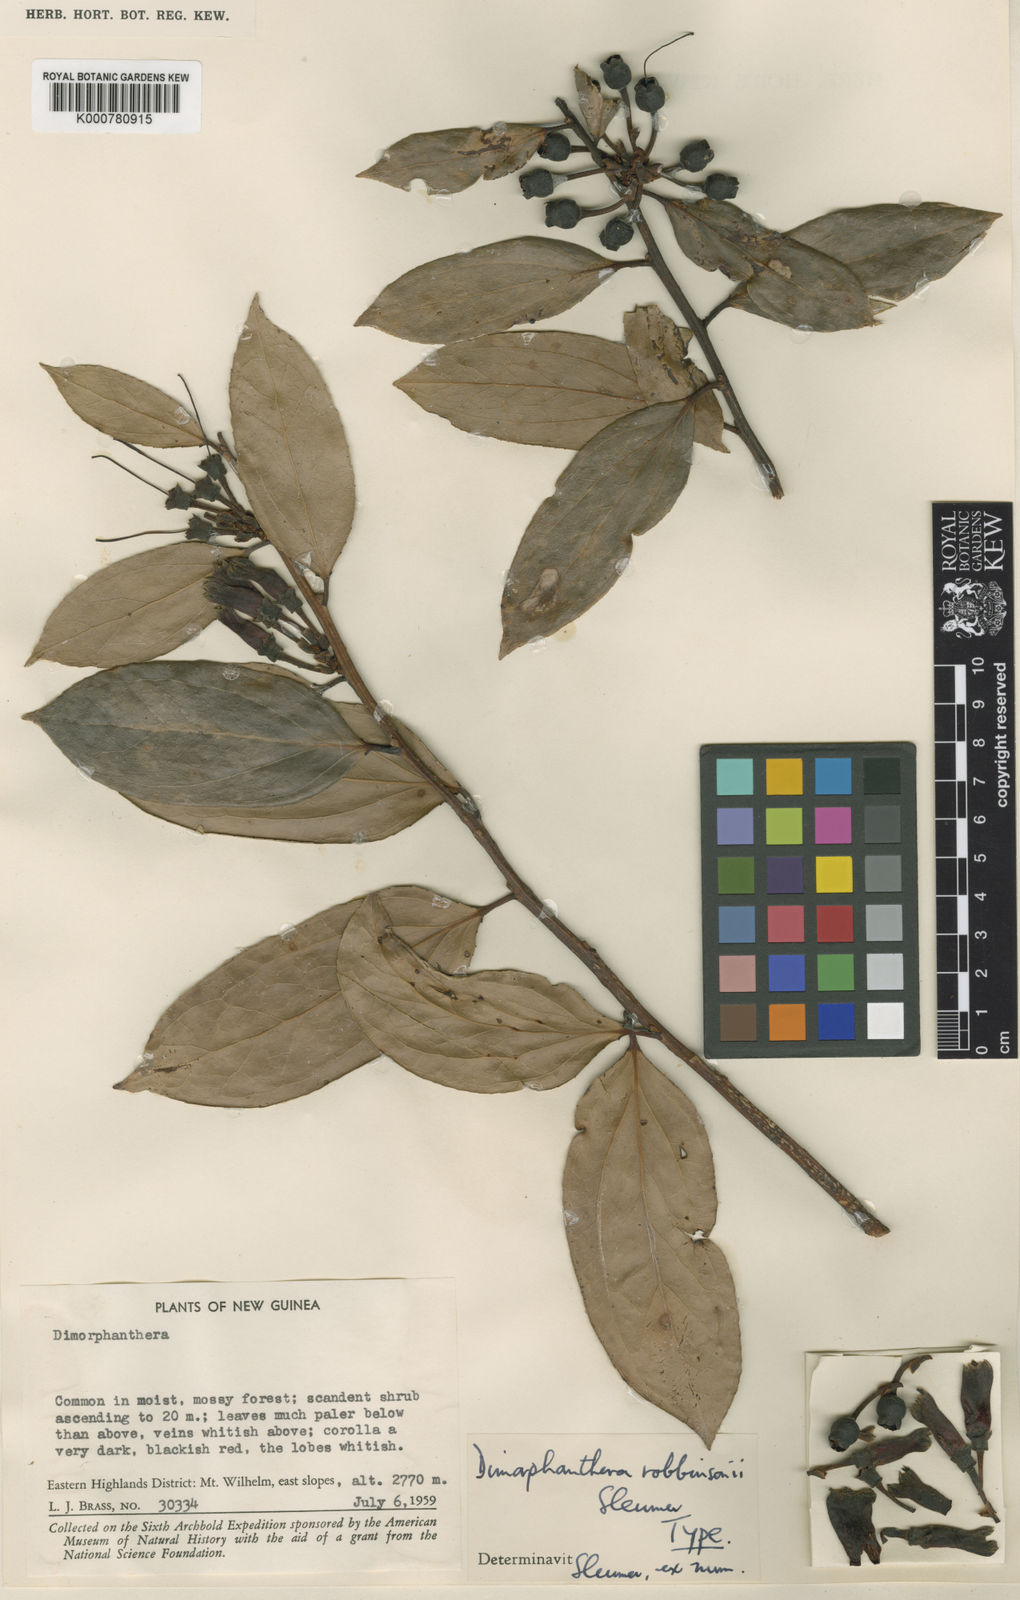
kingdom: Plantae
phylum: Tracheophyta
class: Magnoliopsida
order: Ericales
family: Ericaceae
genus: Dimorphanthera
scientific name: Dimorphanthera
